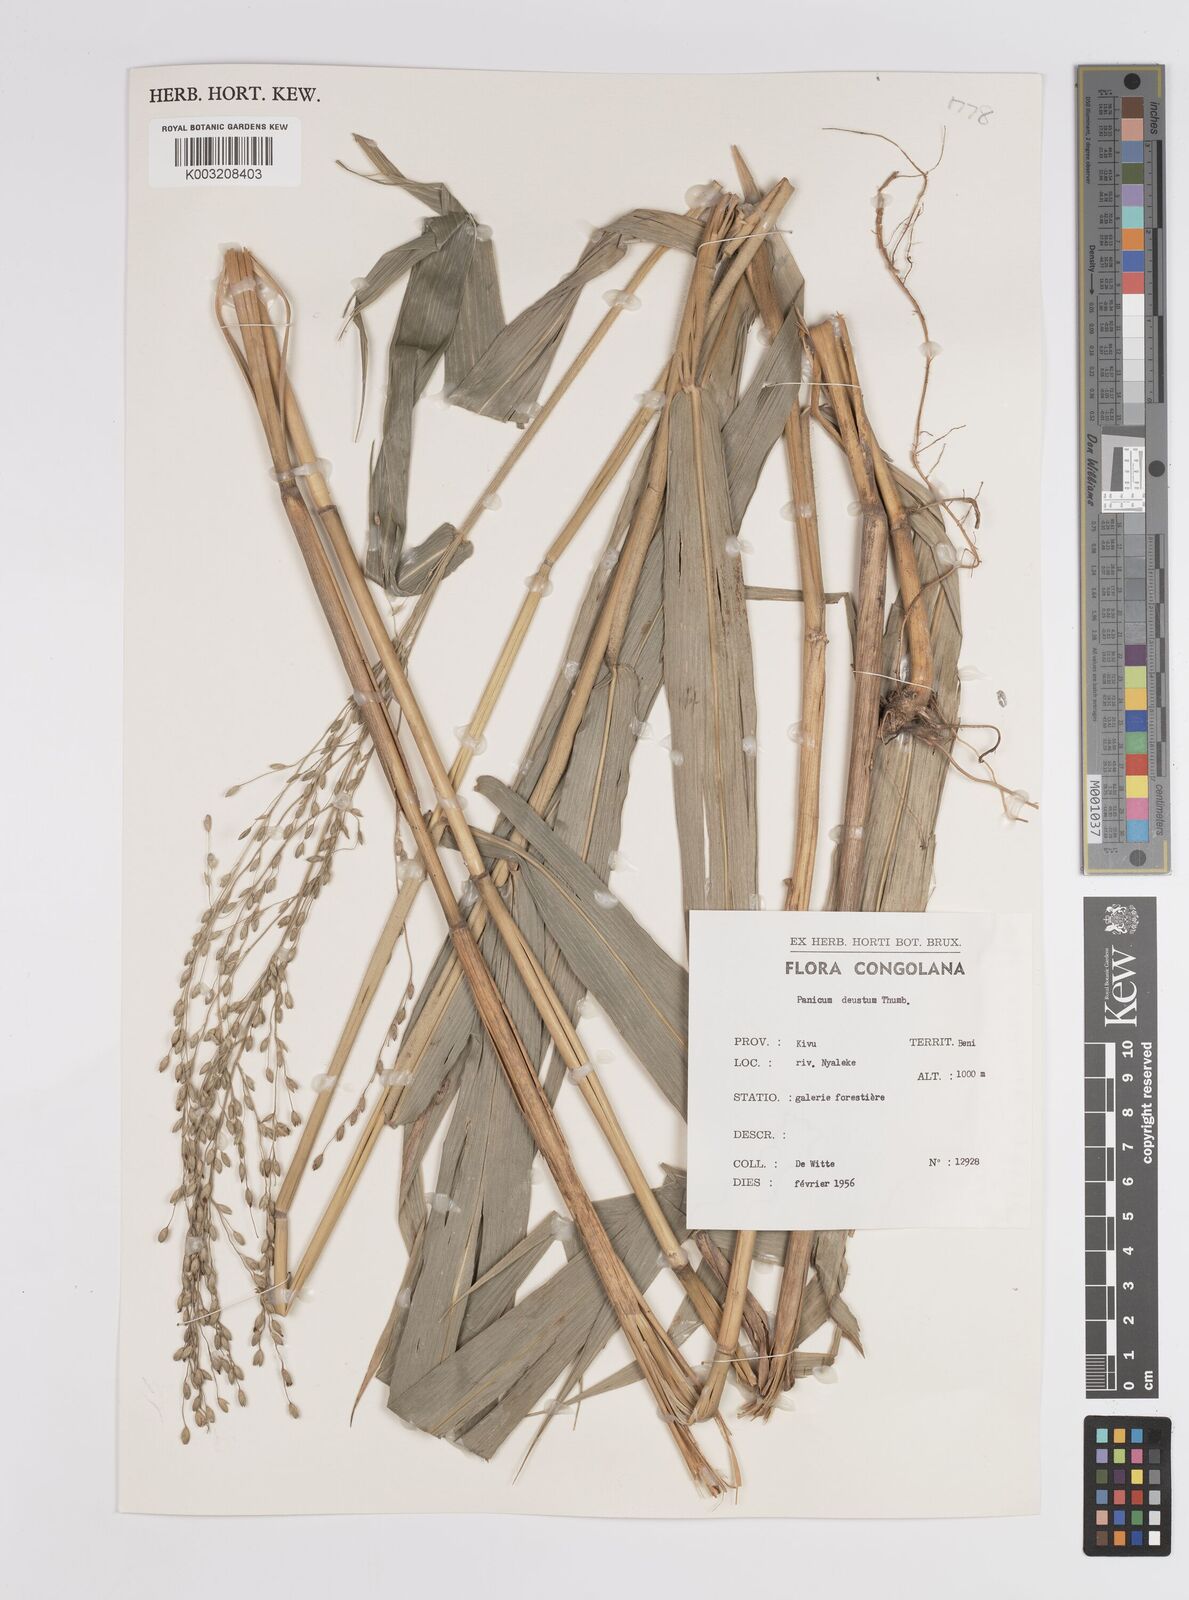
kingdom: Plantae
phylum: Tracheophyta
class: Liliopsida
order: Poales
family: Poaceae
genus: Panicum
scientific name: Panicum deustum
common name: Reed panicum
